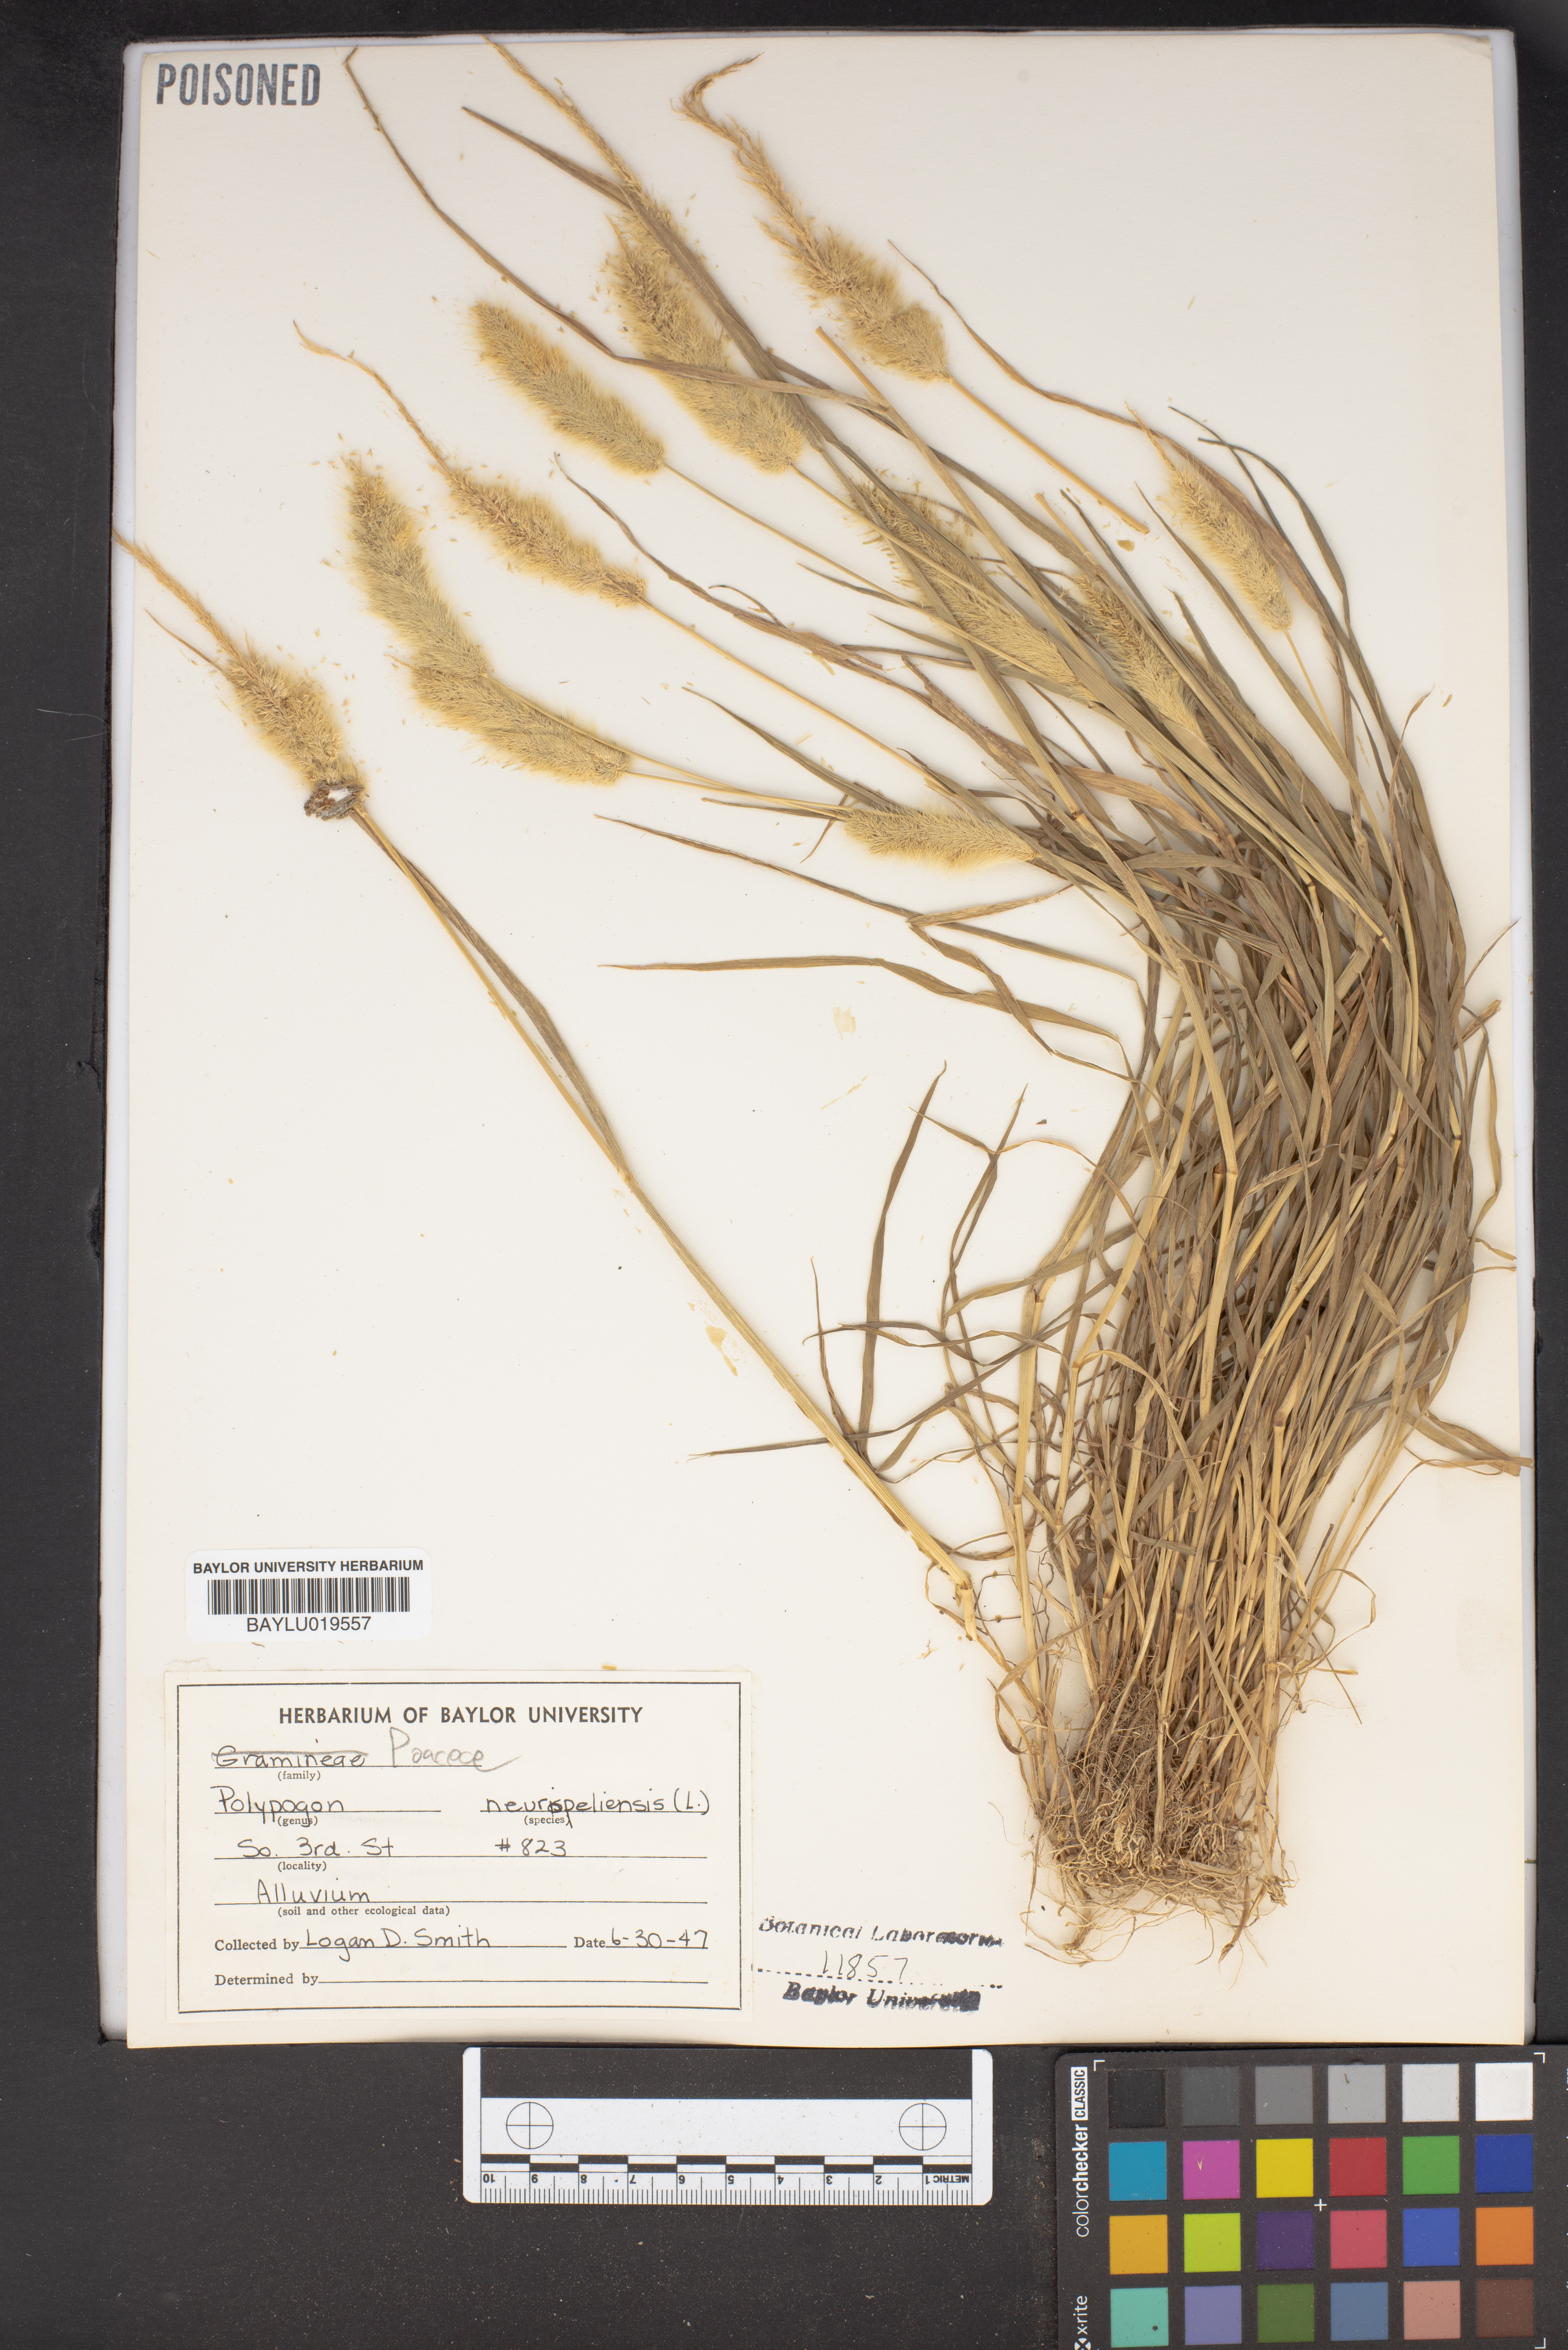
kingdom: Plantae
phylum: Tracheophyta
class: Liliopsida
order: Poales
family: Poaceae
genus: Polypogon
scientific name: Polypogon monspeliensis
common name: Annual rabbitsfoot grass
